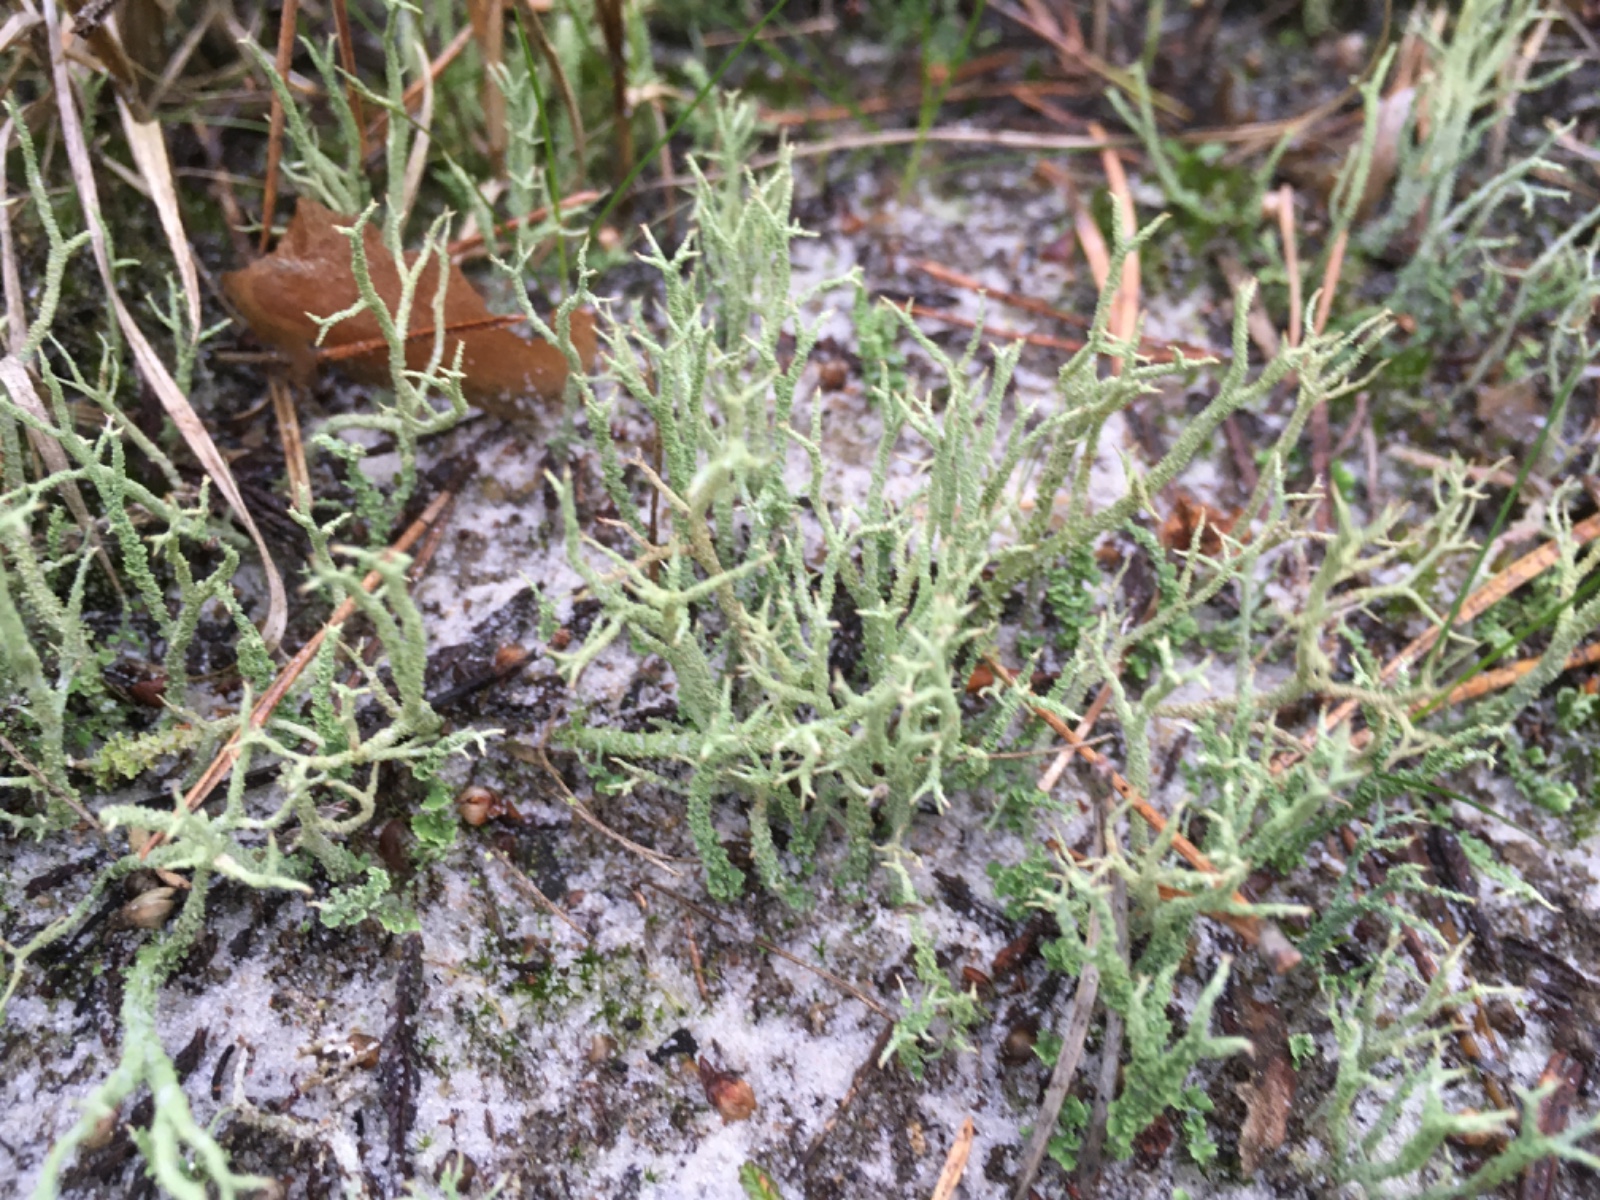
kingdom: Fungi
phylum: Ascomycota
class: Lecanoromycetes
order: Lecanorales
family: Cladoniaceae
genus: Cladonia
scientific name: Cladonia scabriuscula
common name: ru bægerlav
